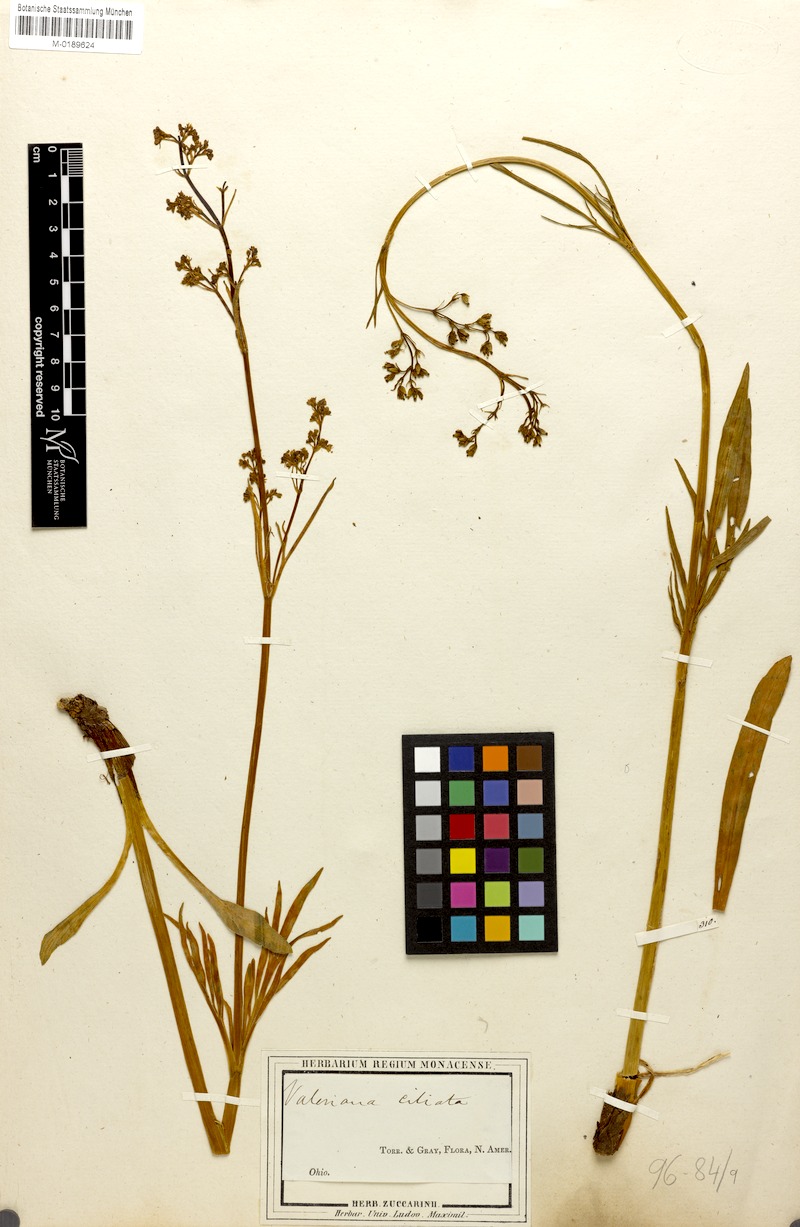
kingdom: Plantae
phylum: Tracheophyta
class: Magnoliopsida
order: Dipsacales
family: Caprifoliaceae
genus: Valeriana
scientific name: Valeriana edulis
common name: Taproot valerian
